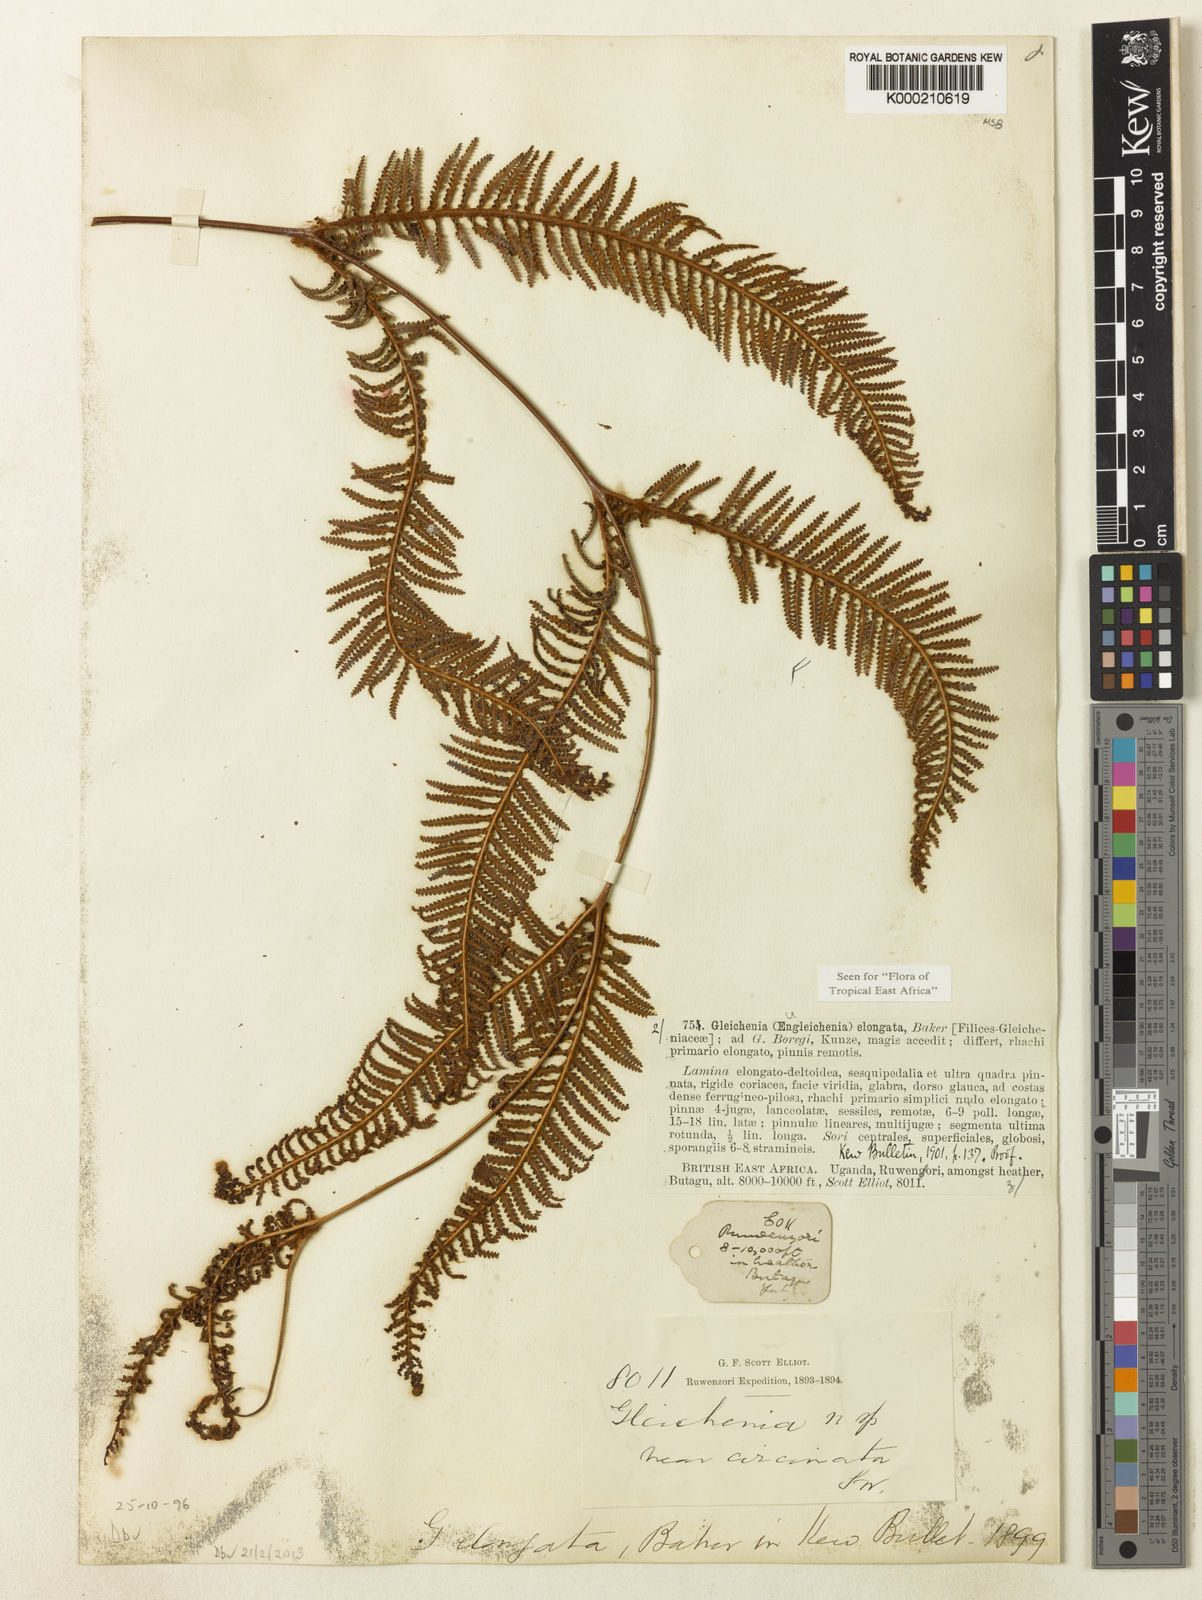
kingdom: Plantae
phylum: Tracheophyta
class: Polypodiopsida
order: Gleicheniales
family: Gleicheniaceae
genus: Gleichenia
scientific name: Gleichenia elongata
